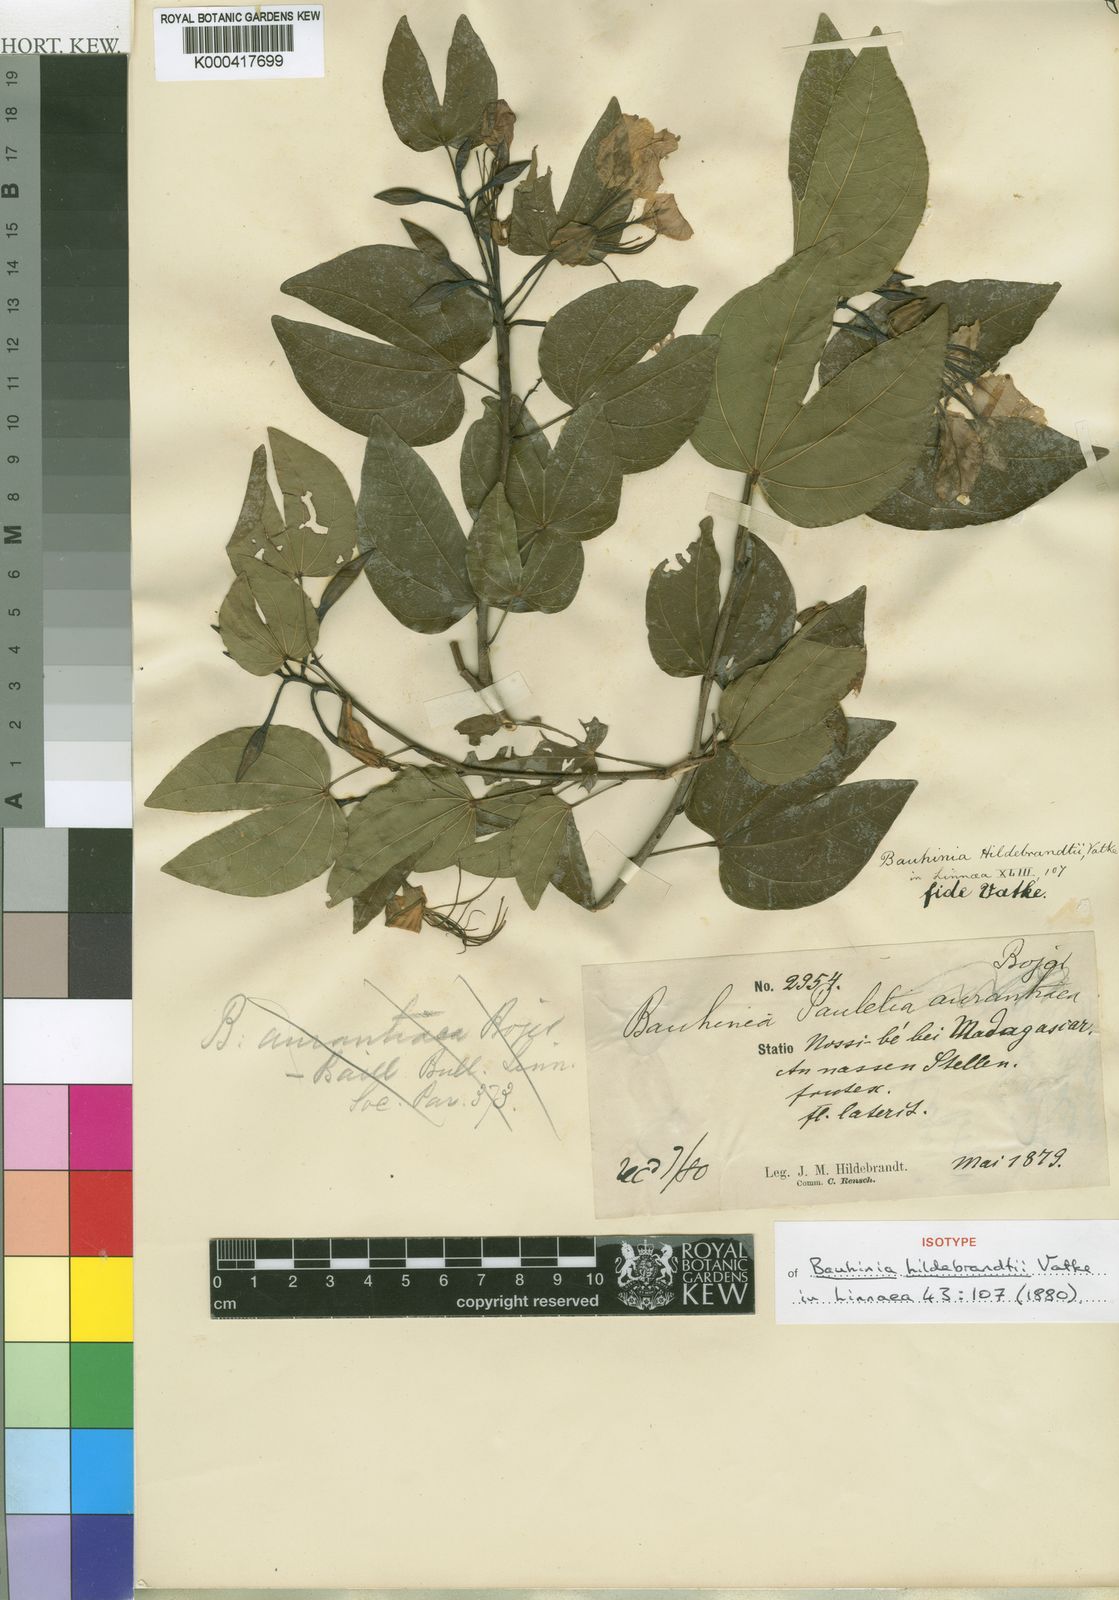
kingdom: Plantae
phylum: Tracheophyta
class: Magnoliopsida
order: Fabales
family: Fabaceae
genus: Bauhinia
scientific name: Bauhinia hildebrandtii
